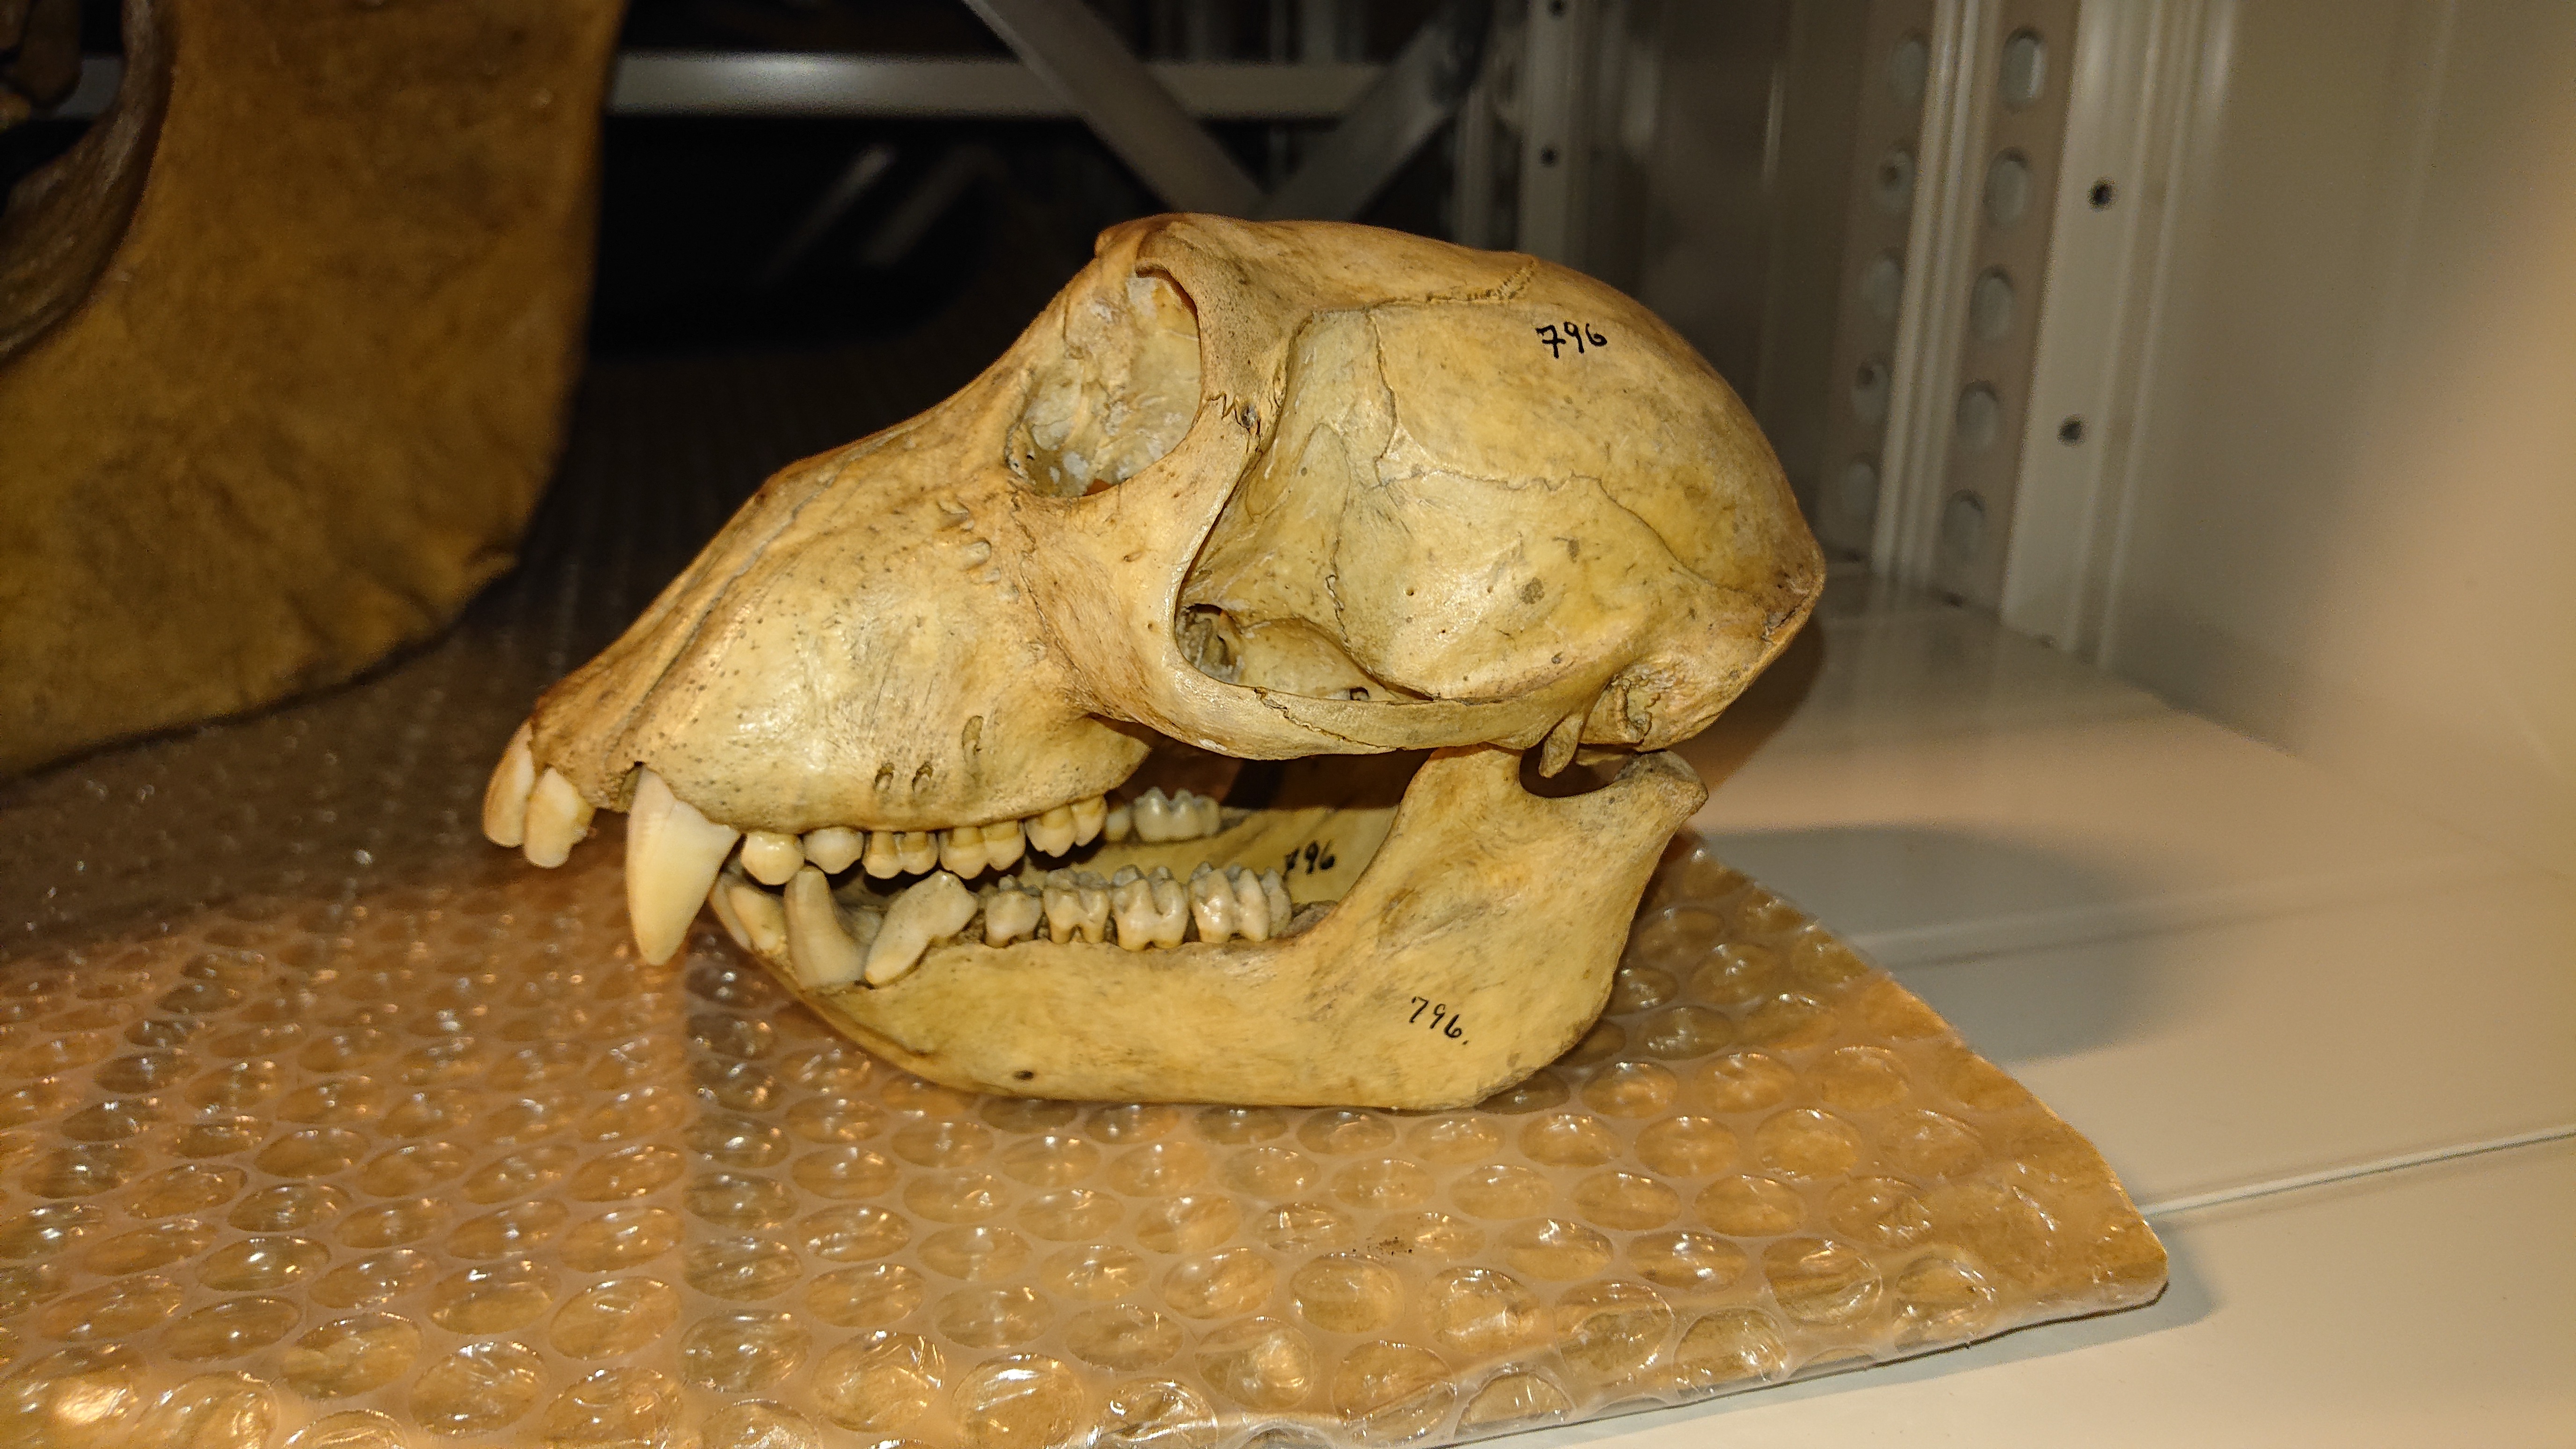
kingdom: Animalia
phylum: Chordata
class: Mammalia
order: Primates
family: Cercopithecidae
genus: Cercocebus
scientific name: Cercocebus
